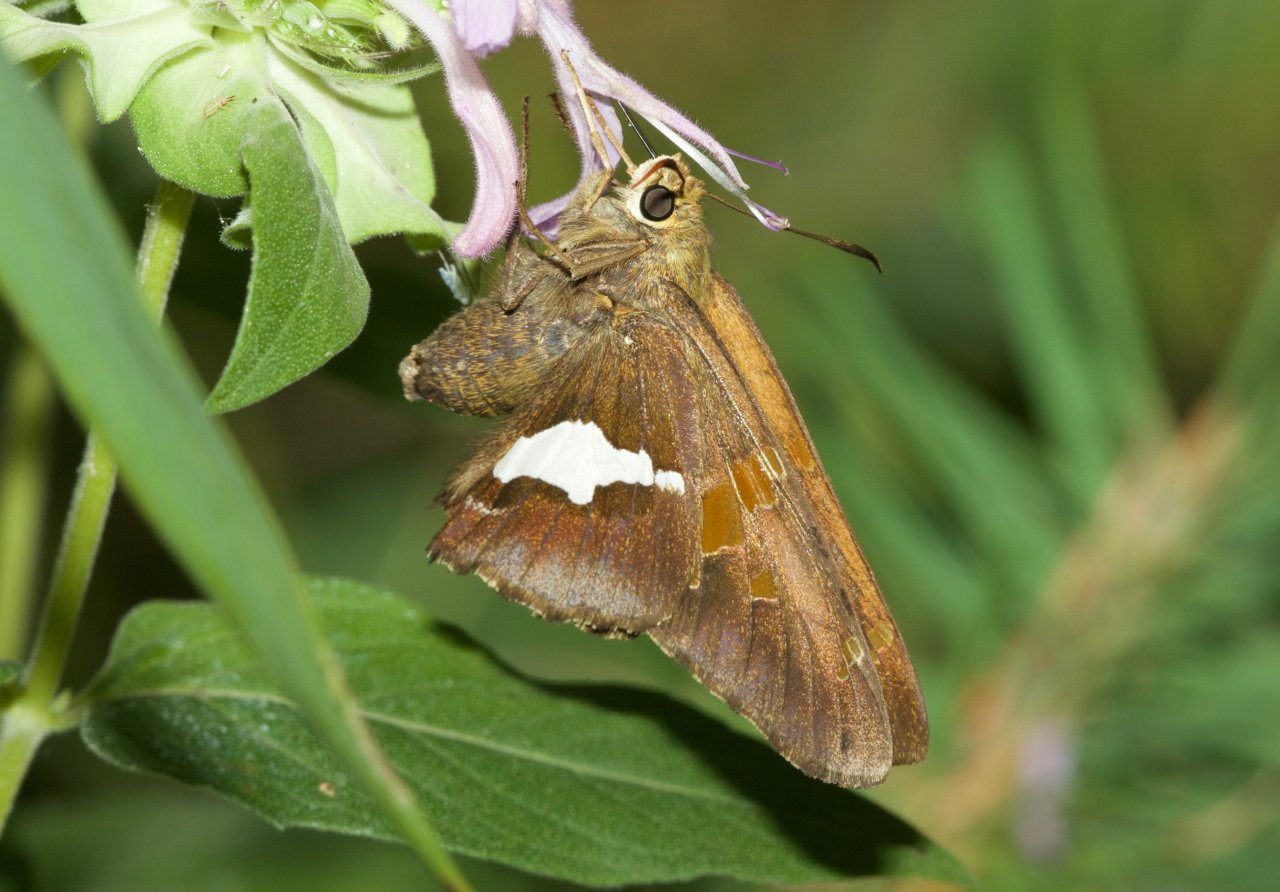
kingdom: Animalia
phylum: Arthropoda
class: Insecta
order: Lepidoptera
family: Hesperiidae
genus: Epargyreus
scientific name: Epargyreus clarus
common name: Silver-spotted Skipper
